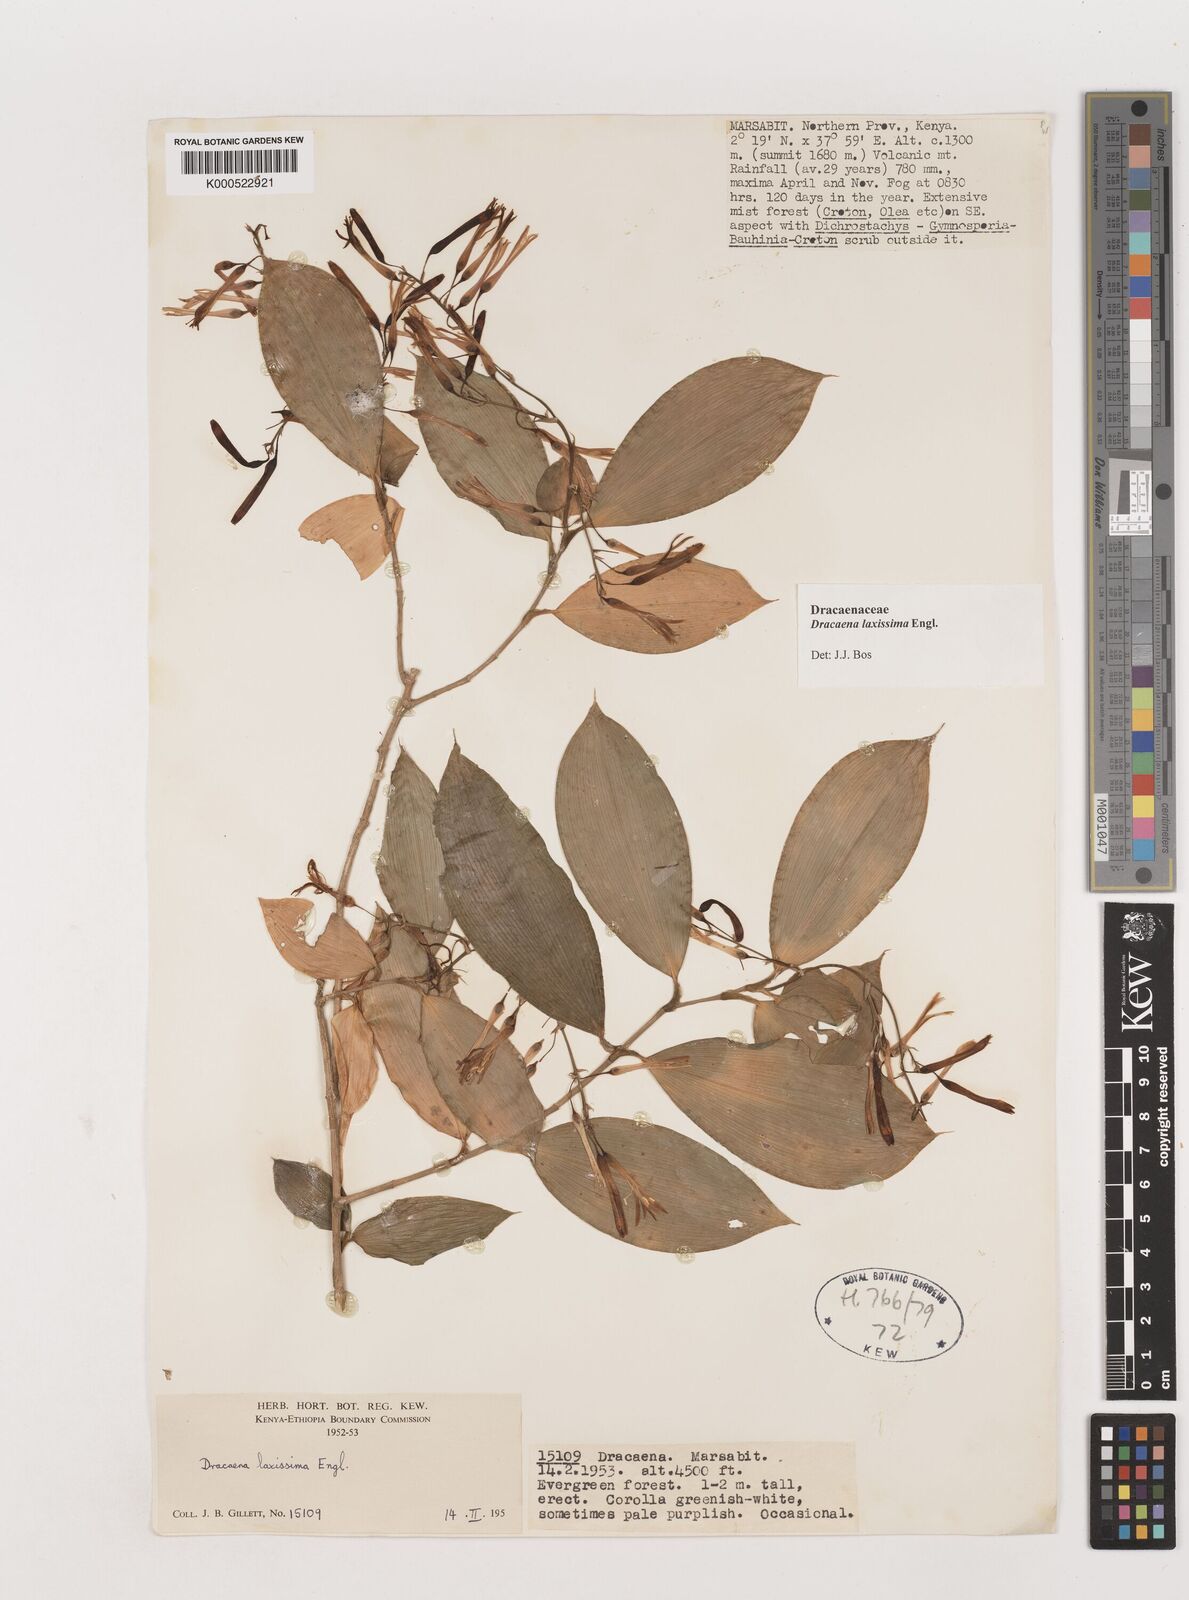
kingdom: Plantae
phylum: Tracheophyta
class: Liliopsida
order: Asparagales
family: Asparagaceae
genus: Dracaena
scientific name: Dracaena laxissima
